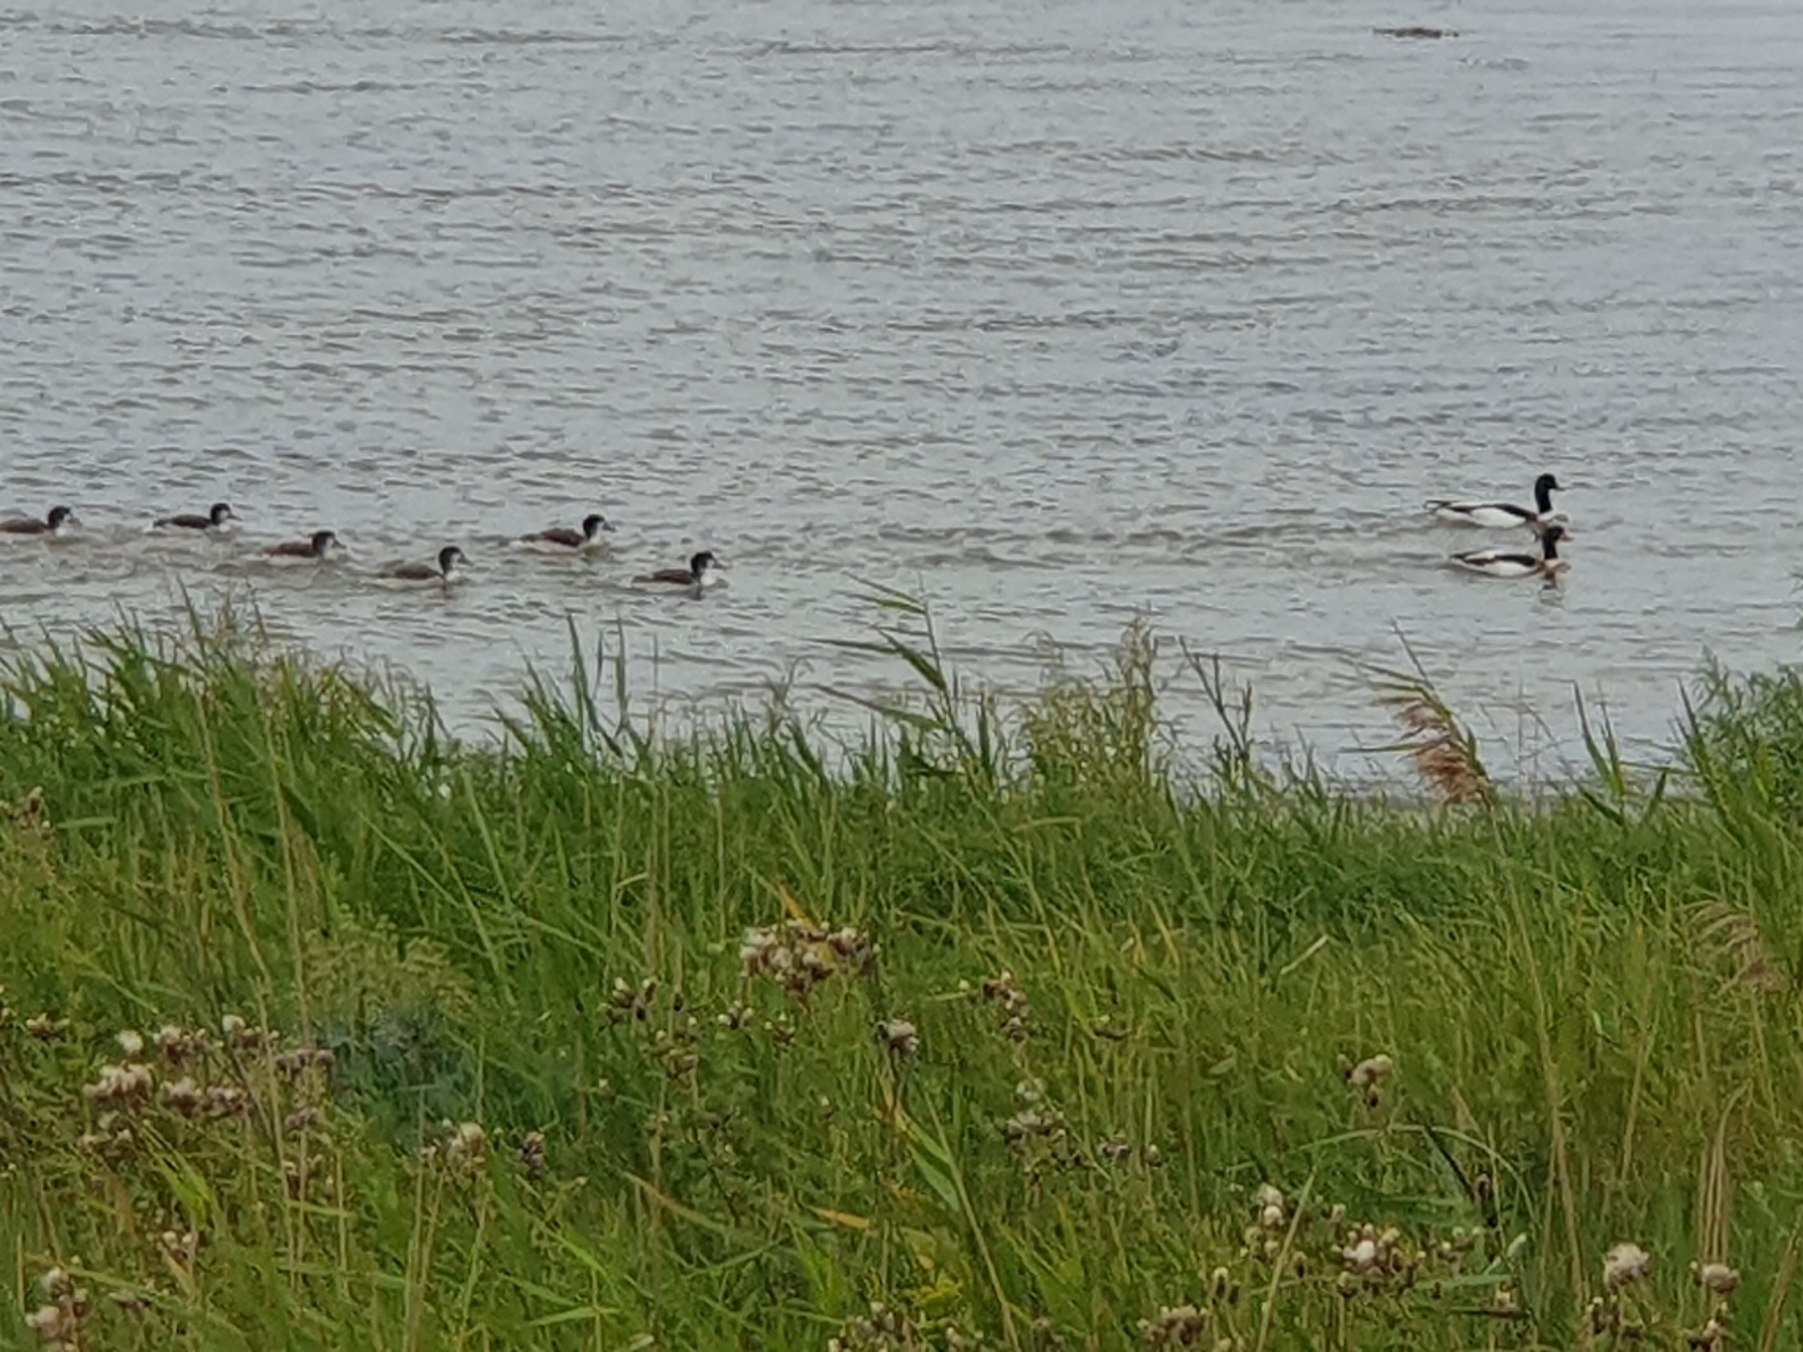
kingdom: Animalia
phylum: Chordata
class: Aves
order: Anseriformes
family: Anatidae
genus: Tadorna
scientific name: Tadorna tadorna
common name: Gravand
